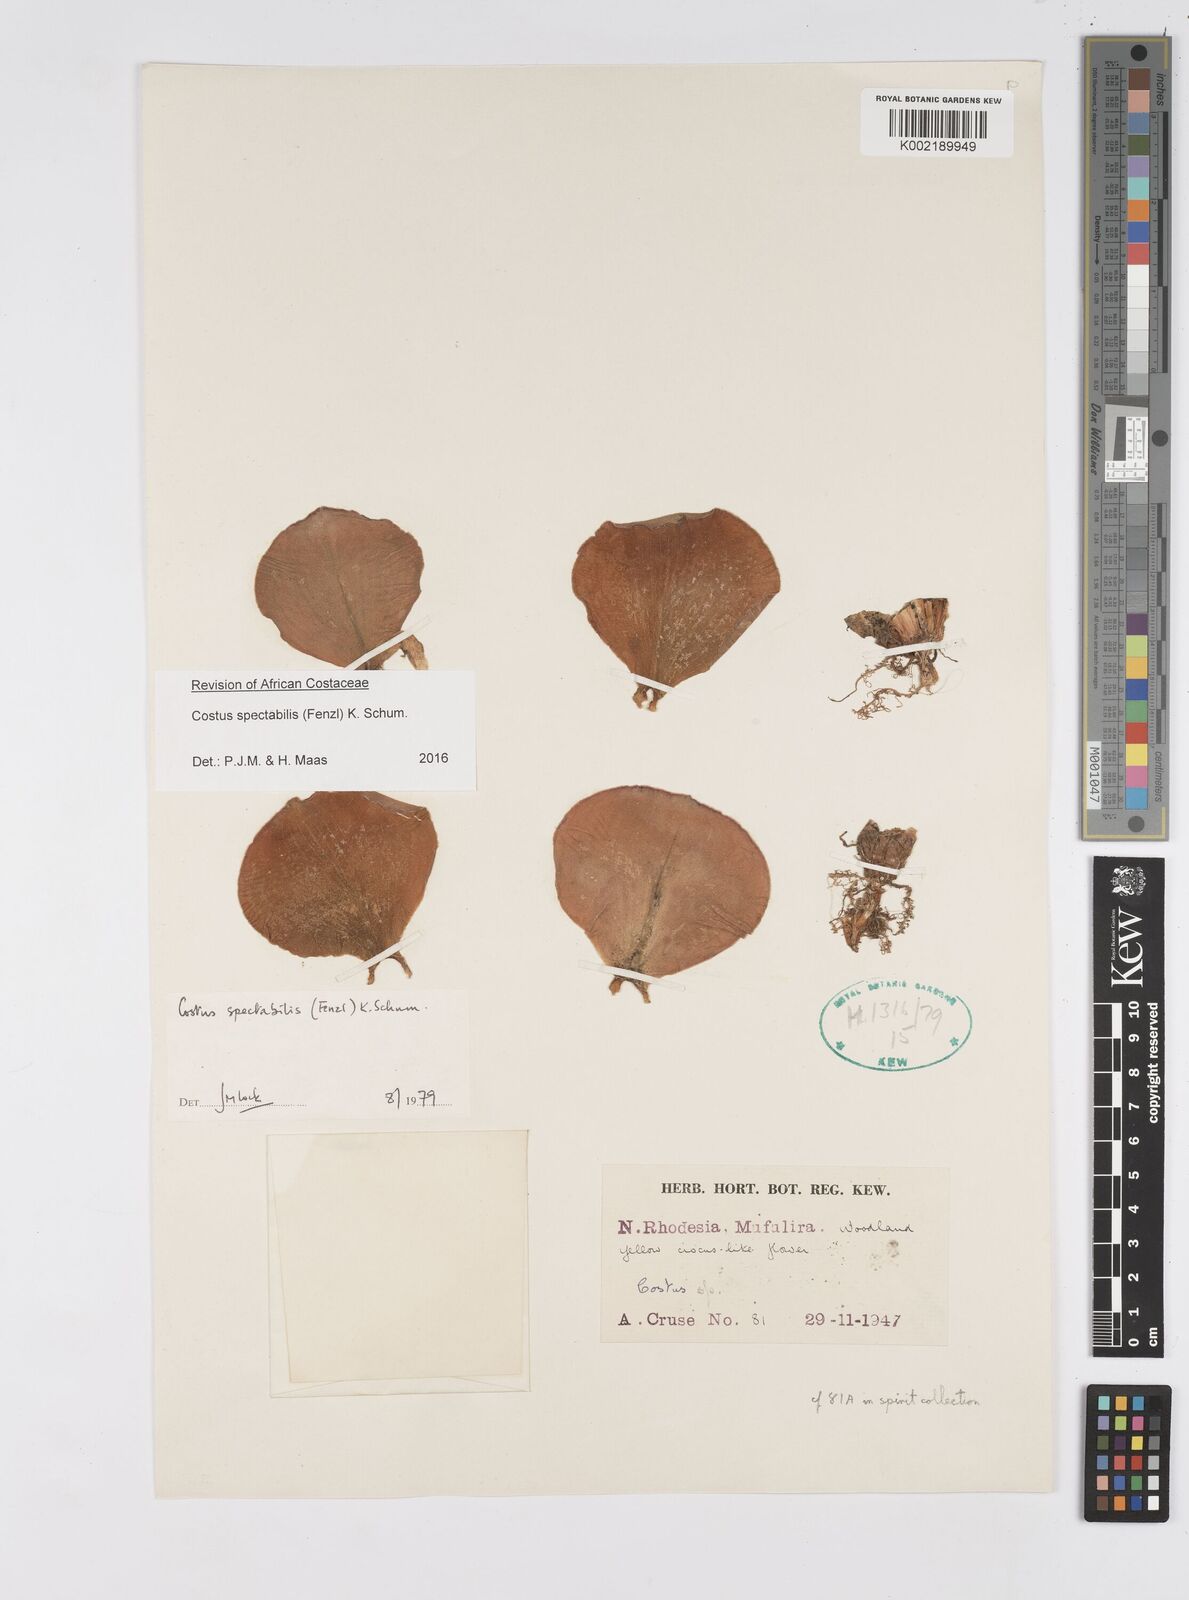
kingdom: Plantae
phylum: Tracheophyta
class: Liliopsida
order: Zingiberales
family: Costaceae
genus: Costus
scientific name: Costus spectabilis
